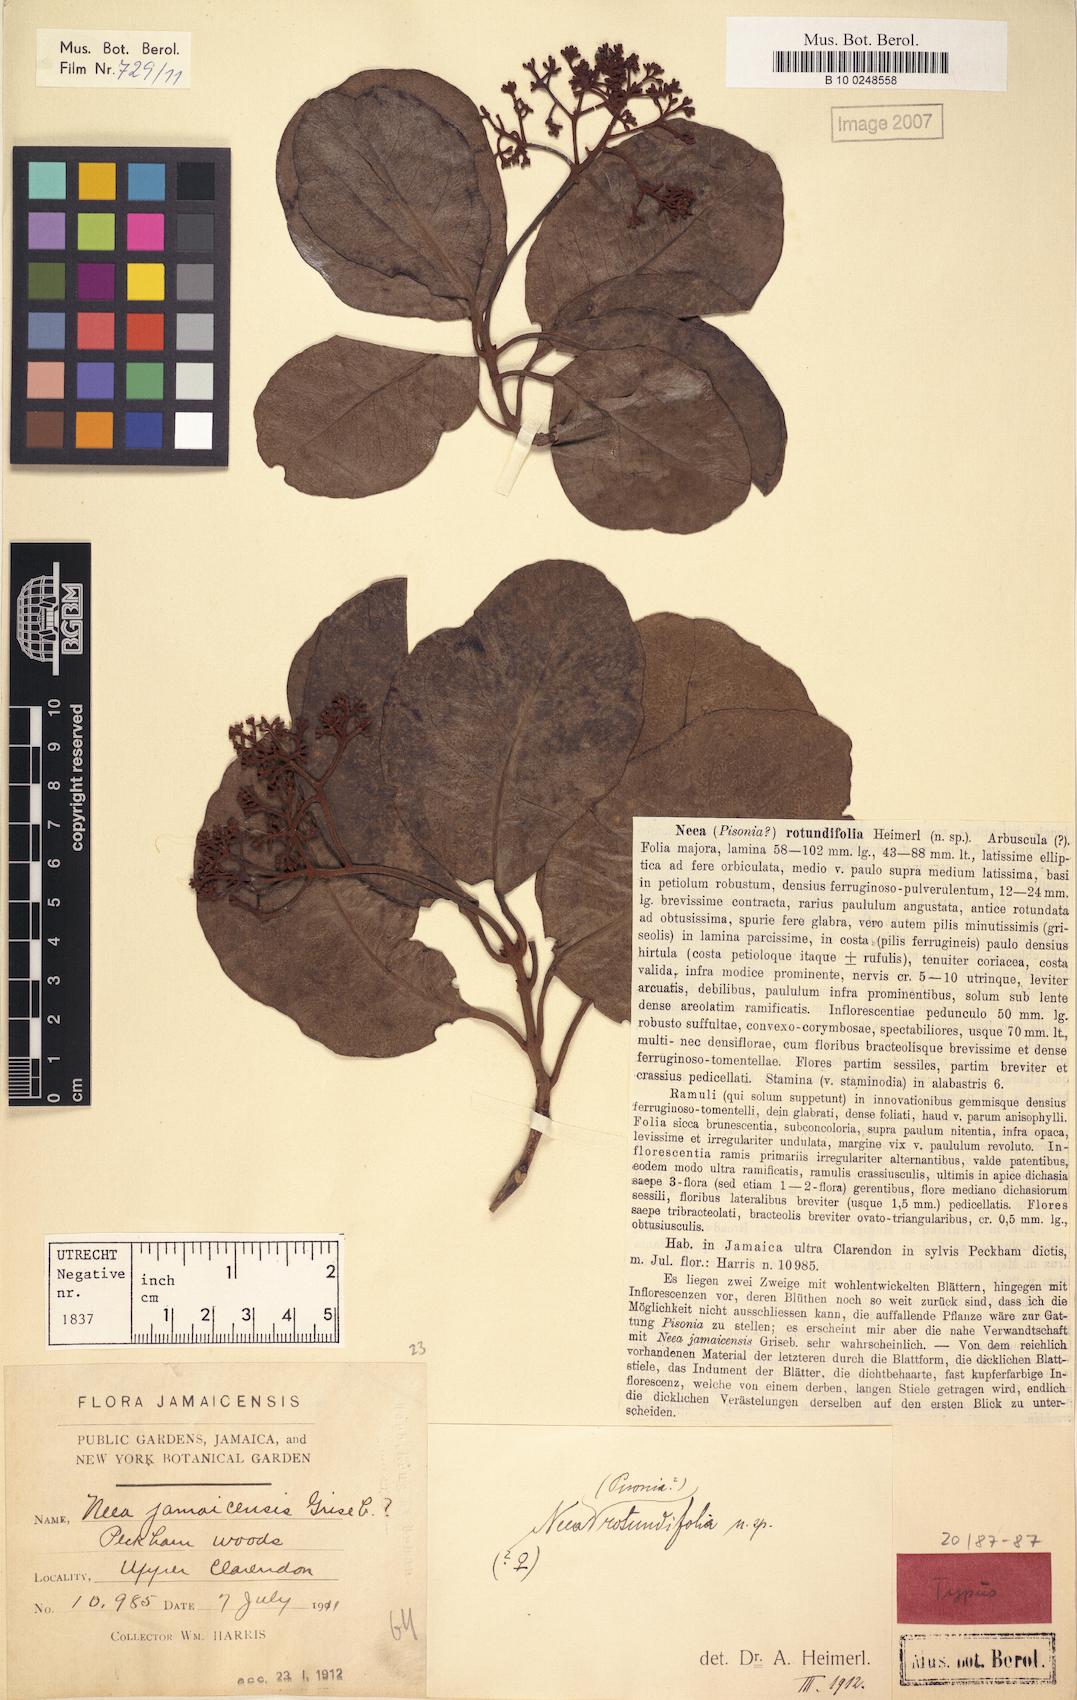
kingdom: Plantae
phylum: Tracheophyta
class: Magnoliopsida
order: Caryophyllales
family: Nyctaginaceae
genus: Pisonia
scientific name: Pisonia subcordata
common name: Mampoo
